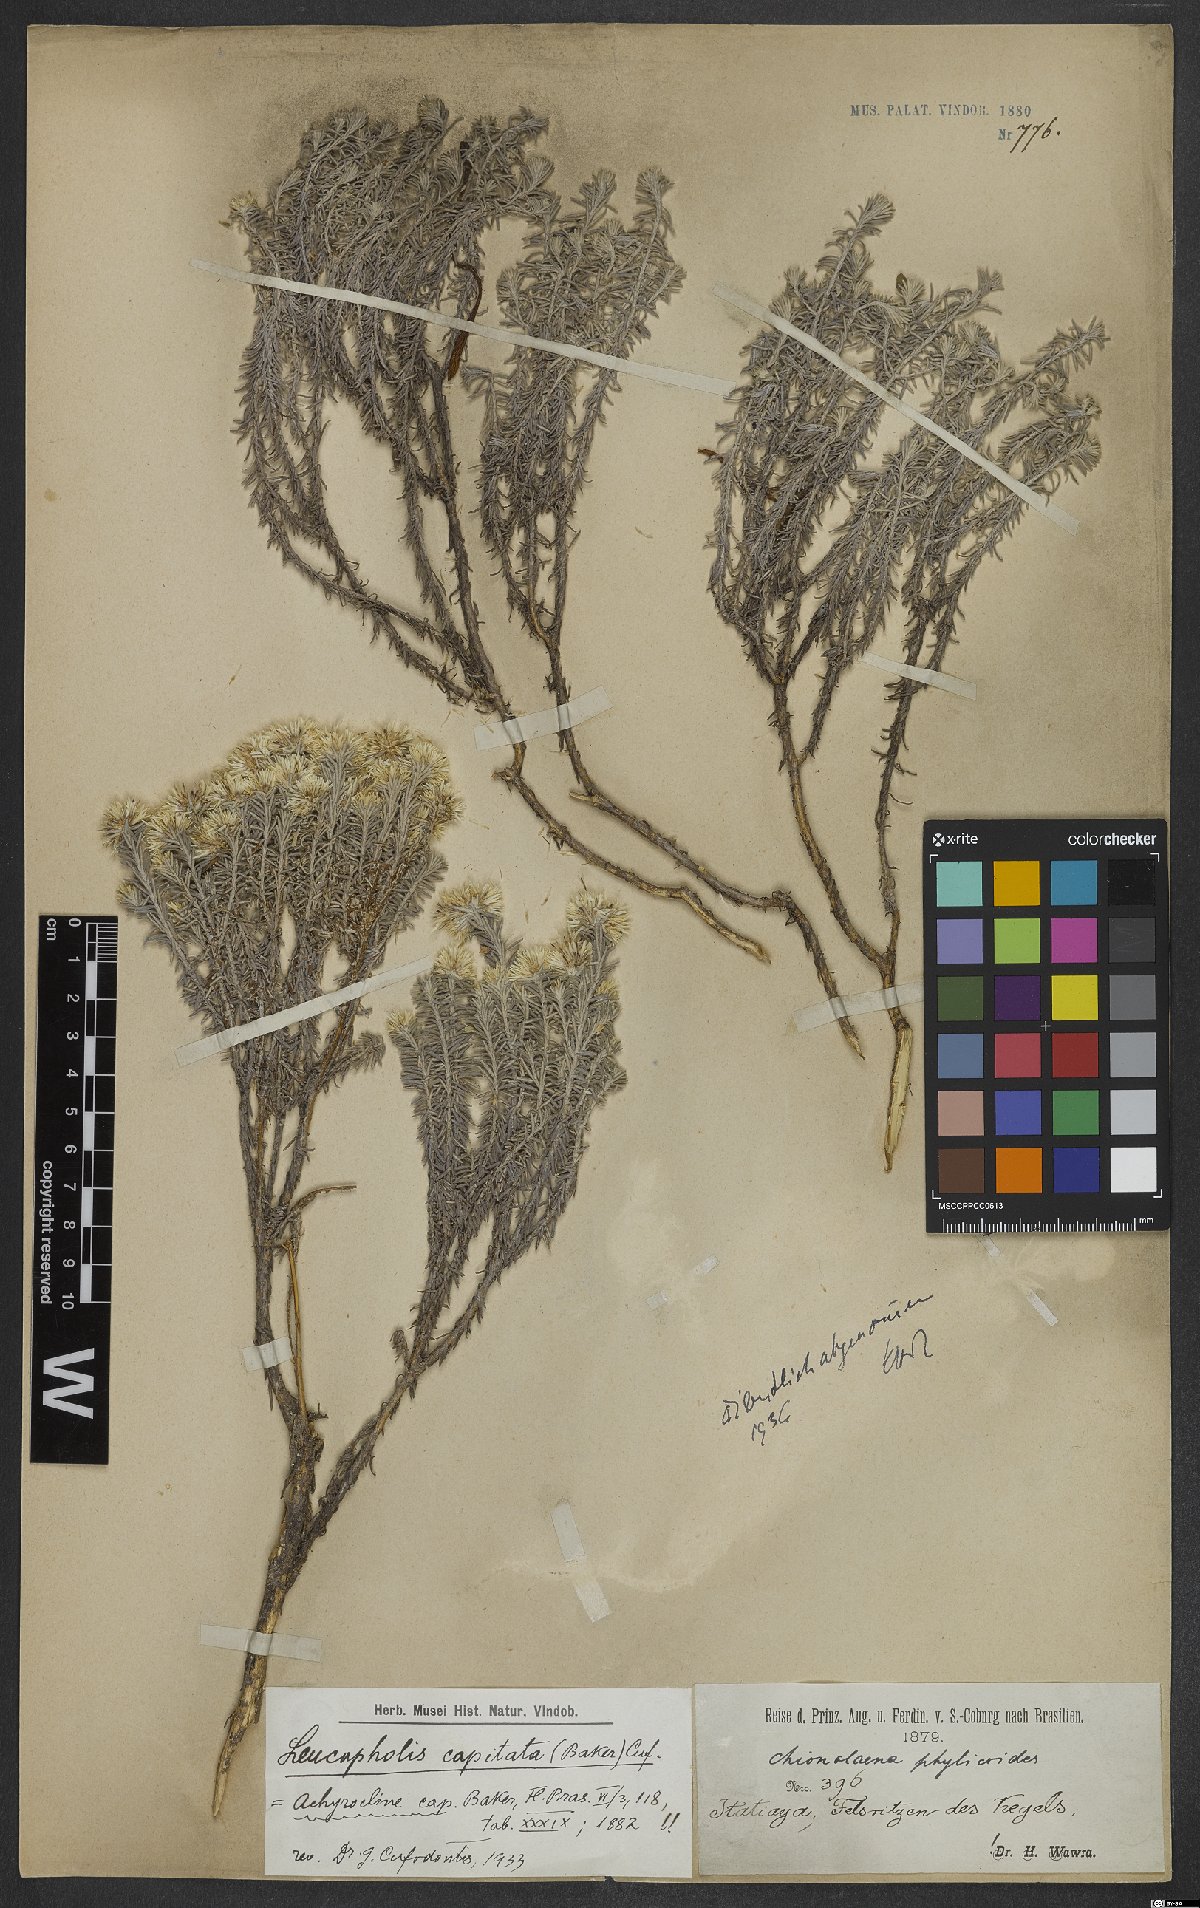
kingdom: Plantae
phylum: Tracheophyta
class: Magnoliopsida
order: Asterales
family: Asteraceae
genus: Chionolaena
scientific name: Chionolaena capitata
